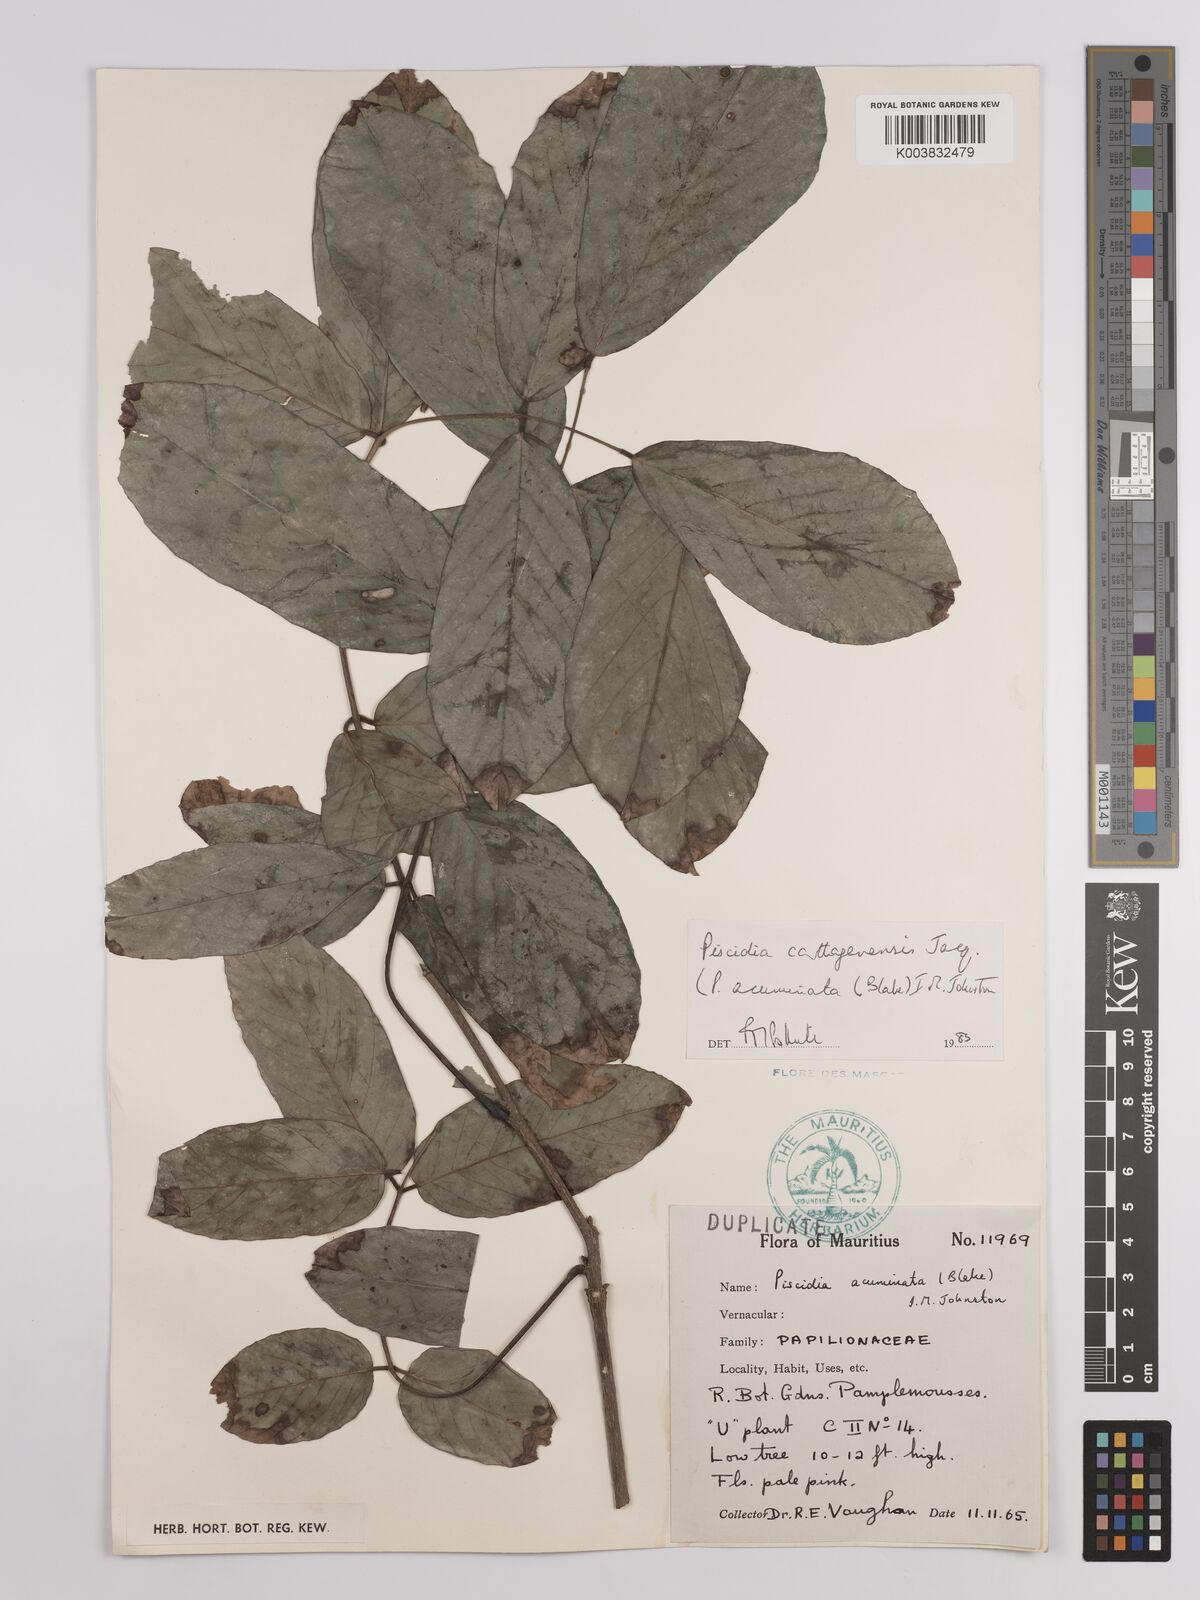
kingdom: Plantae
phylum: Tracheophyta
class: Magnoliopsida
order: Fabales
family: Fabaceae
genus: Piscidia
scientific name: Piscidia carthagenensis
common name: Stinkwood
